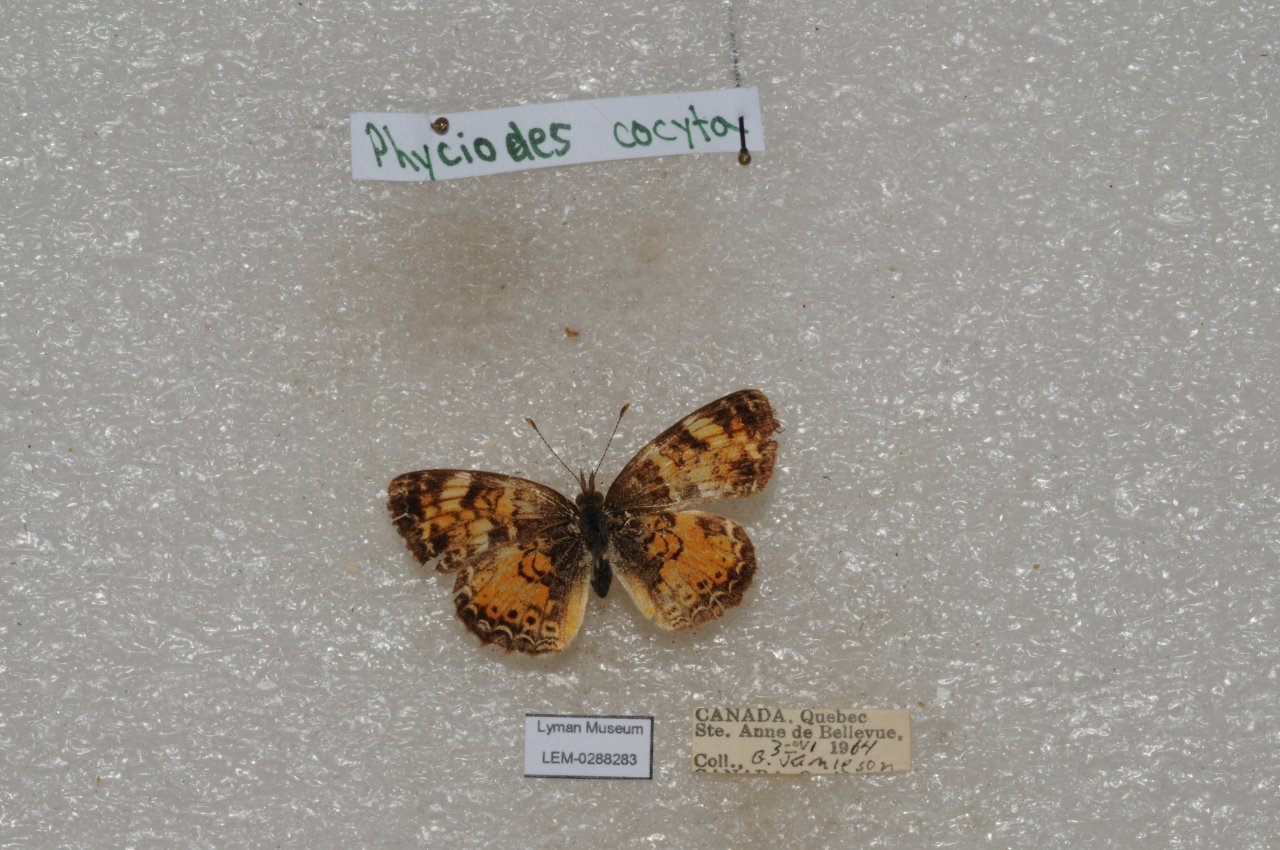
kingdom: Animalia
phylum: Arthropoda
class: Insecta
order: Lepidoptera
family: Nymphalidae
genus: Phyciodes
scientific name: Phyciodes tharos
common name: Northern Crescent
